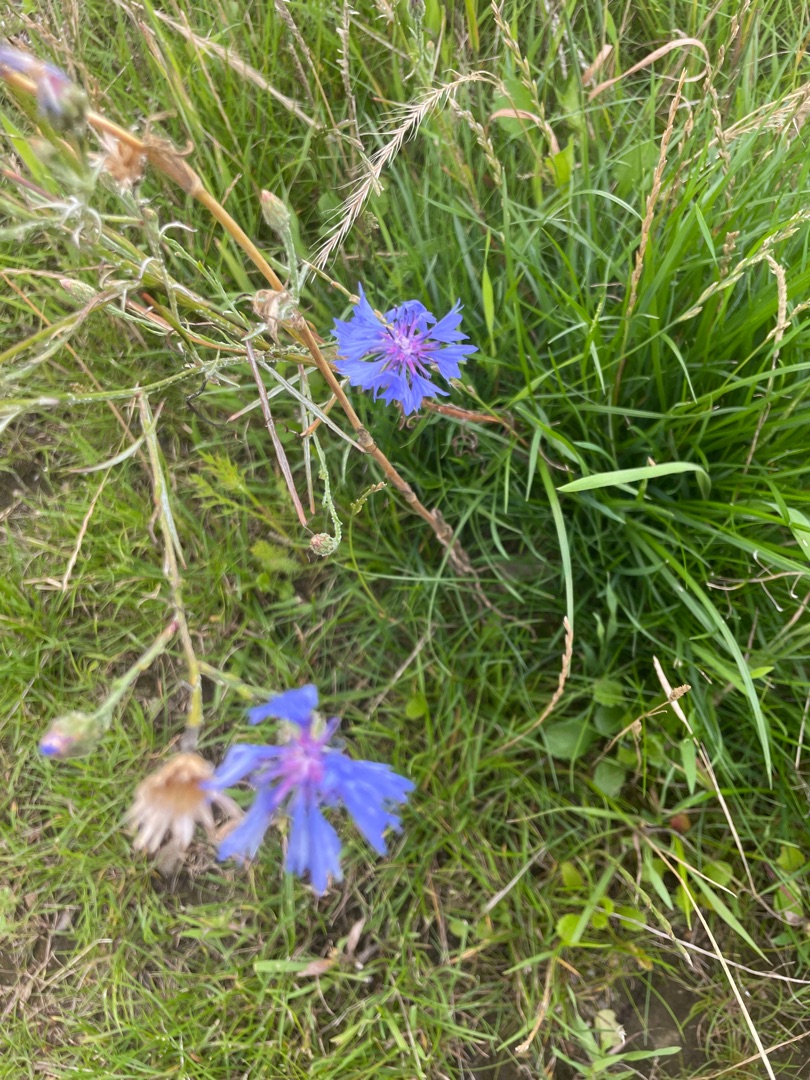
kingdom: Plantae
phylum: Tracheophyta
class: Magnoliopsida
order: Asterales
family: Asteraceae
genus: Centaurea
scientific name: Centaurea cyanus
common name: Kornblomst
